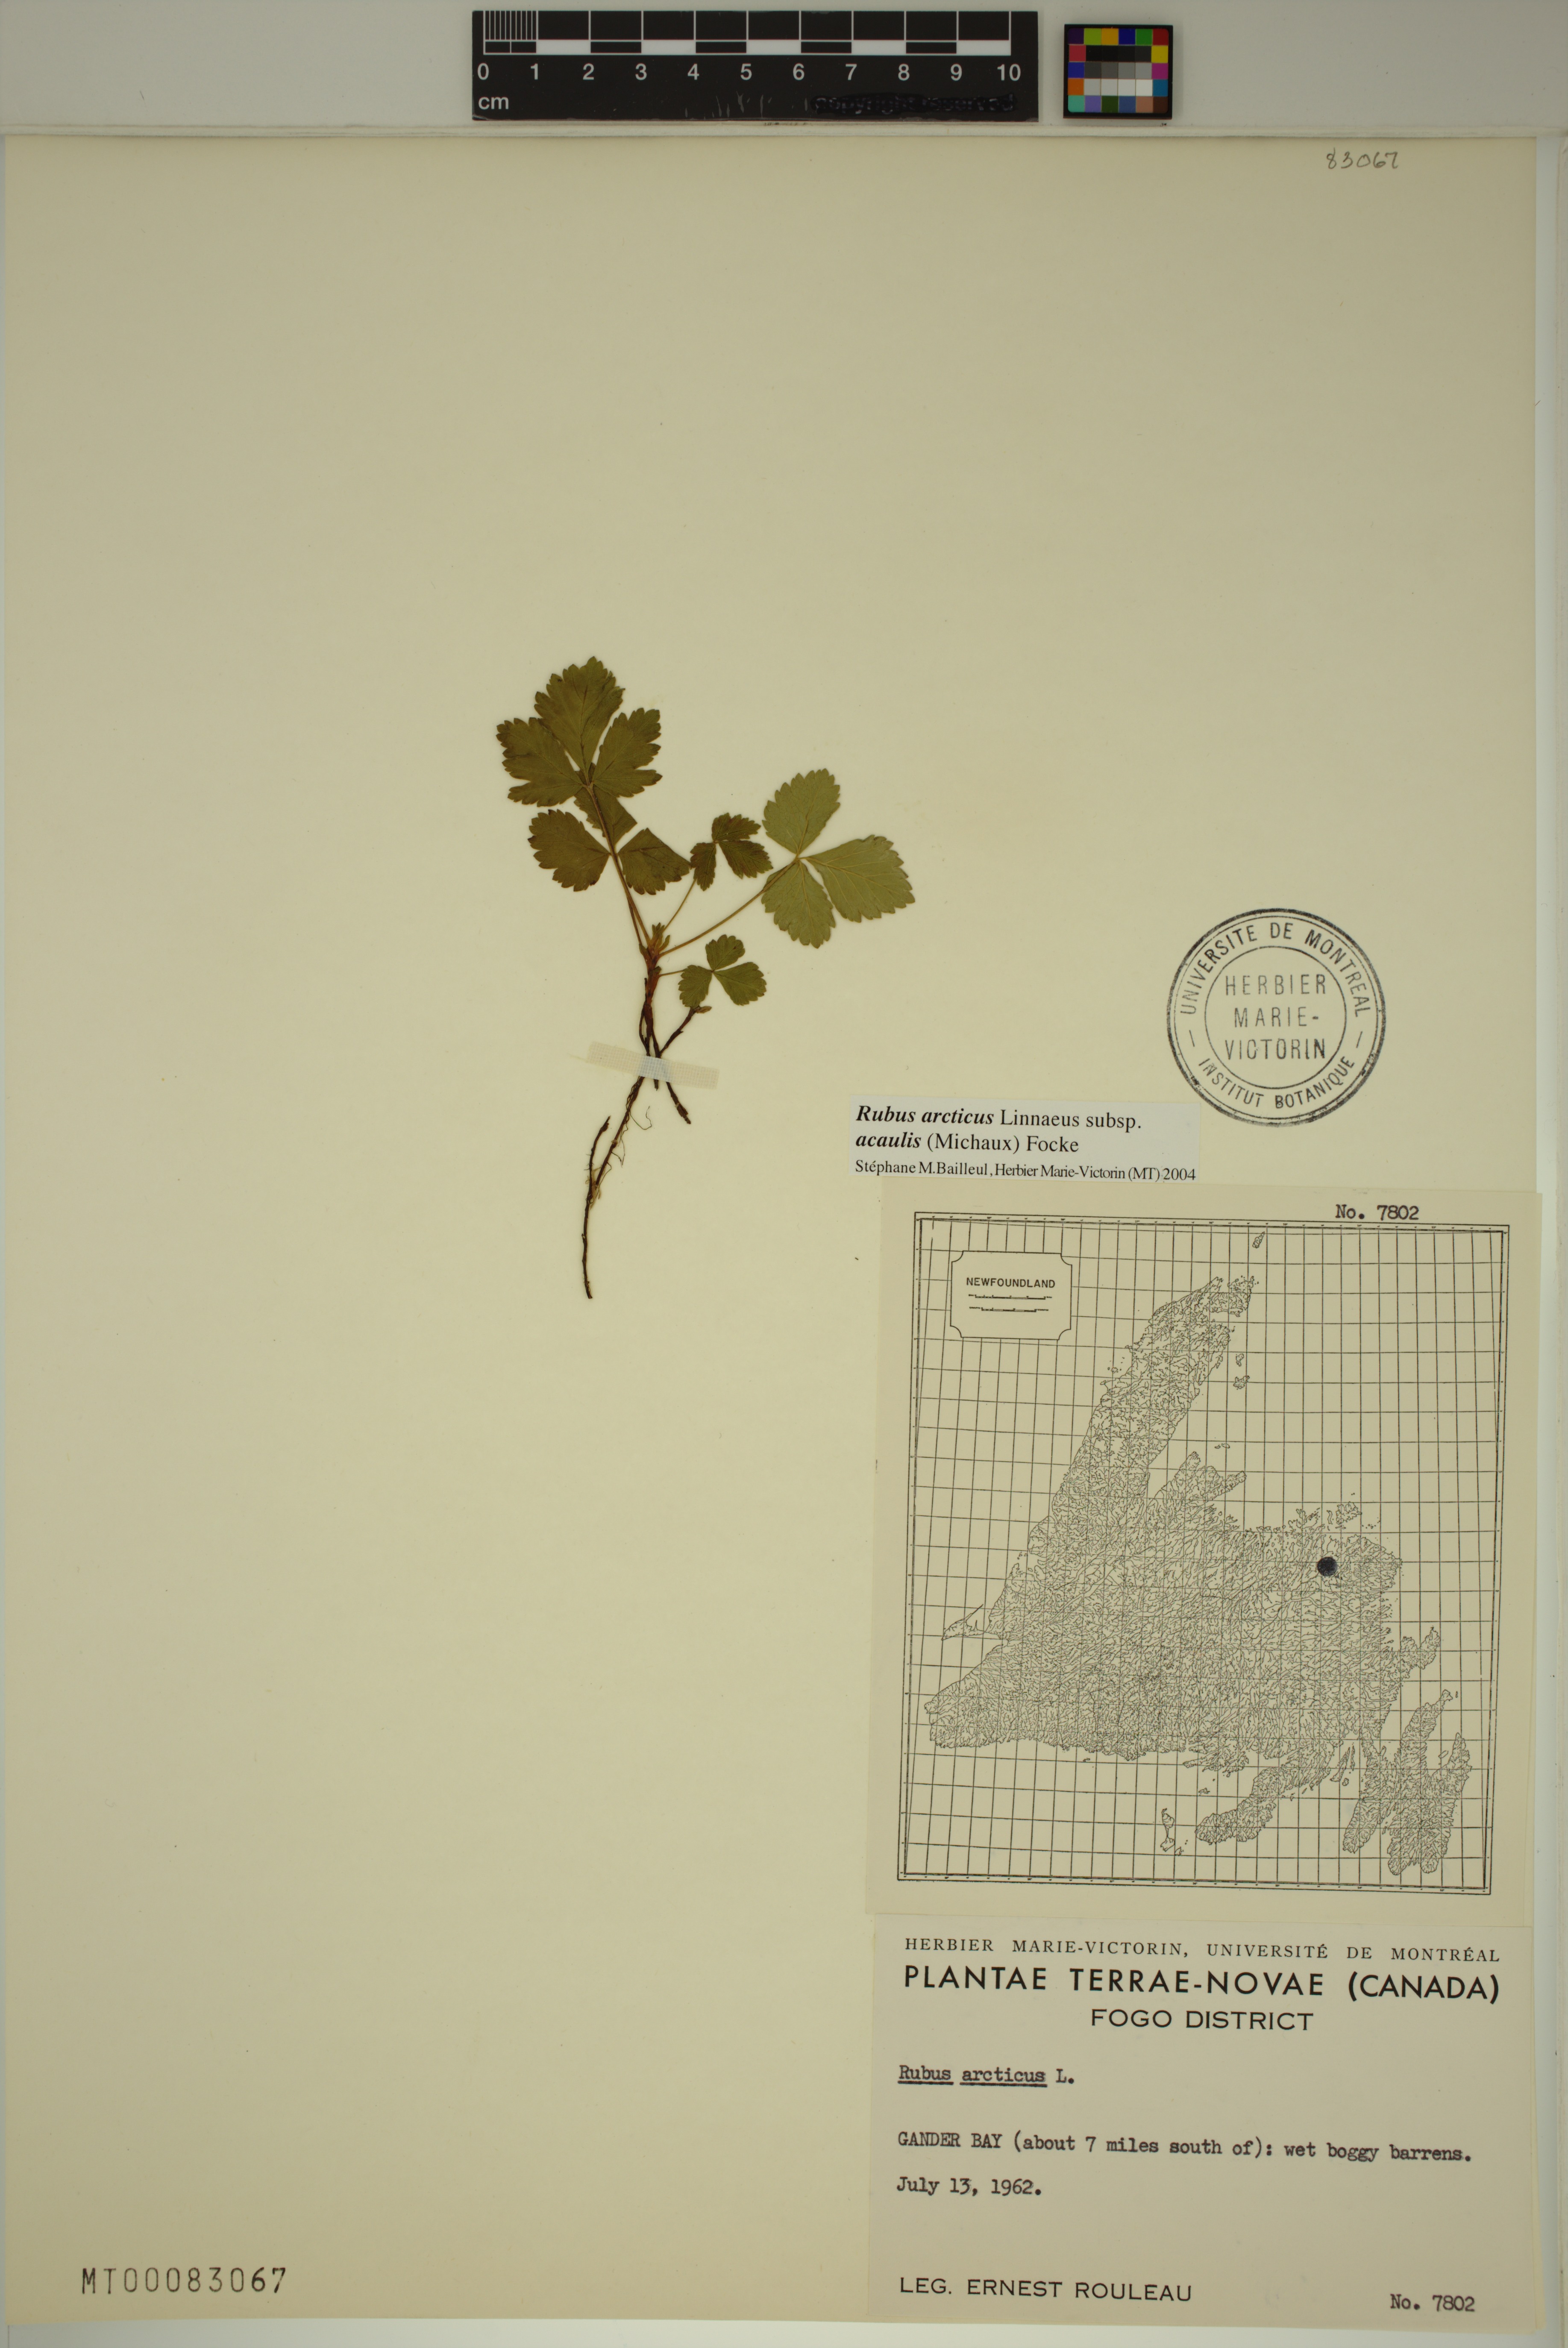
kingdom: Plantae
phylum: Tracheophyta
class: Magnoliopsida
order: Rosales
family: Rosaceae
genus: Rubus
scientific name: Rubus arcticus
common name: Arctic bramble
